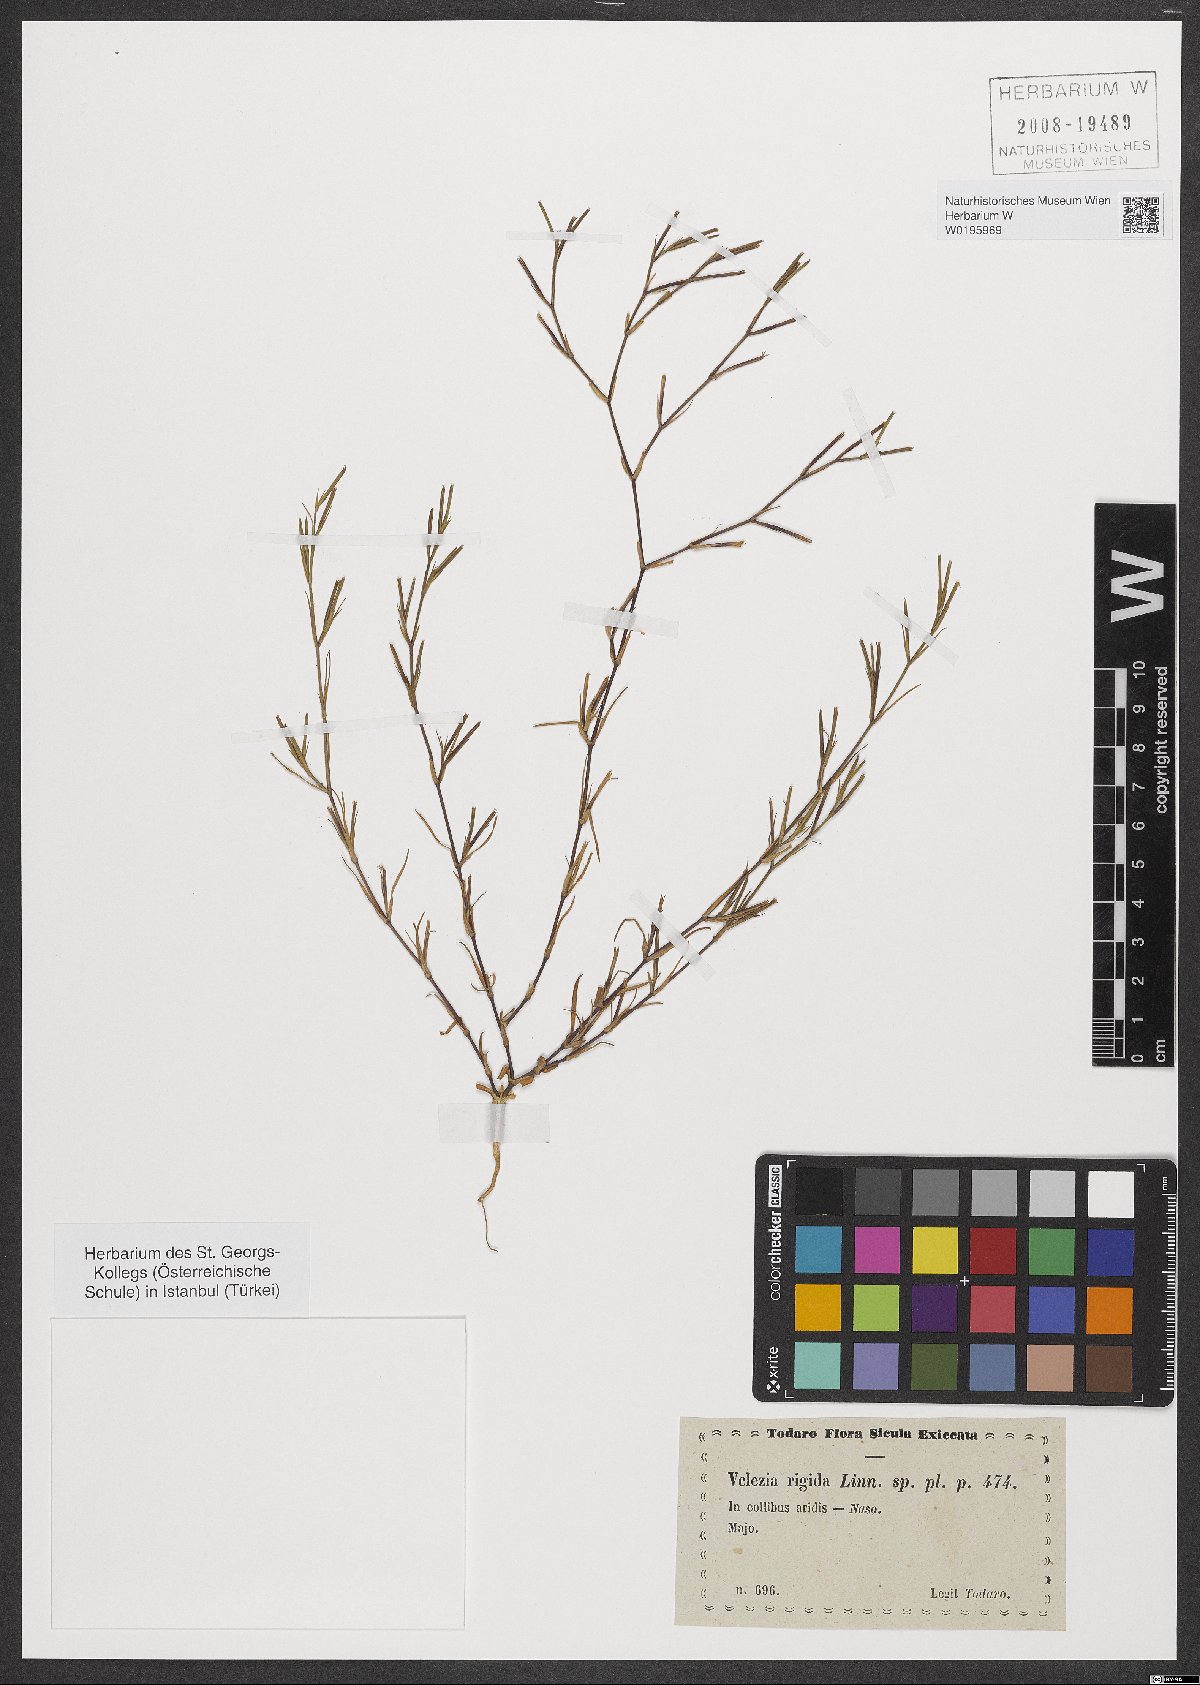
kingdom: Plantae
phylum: Tracheophyta
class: Magnoliopsida
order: Caryophyllales
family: Caryophyllaceae
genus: Dianthus
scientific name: Dianthus nudiflorus
